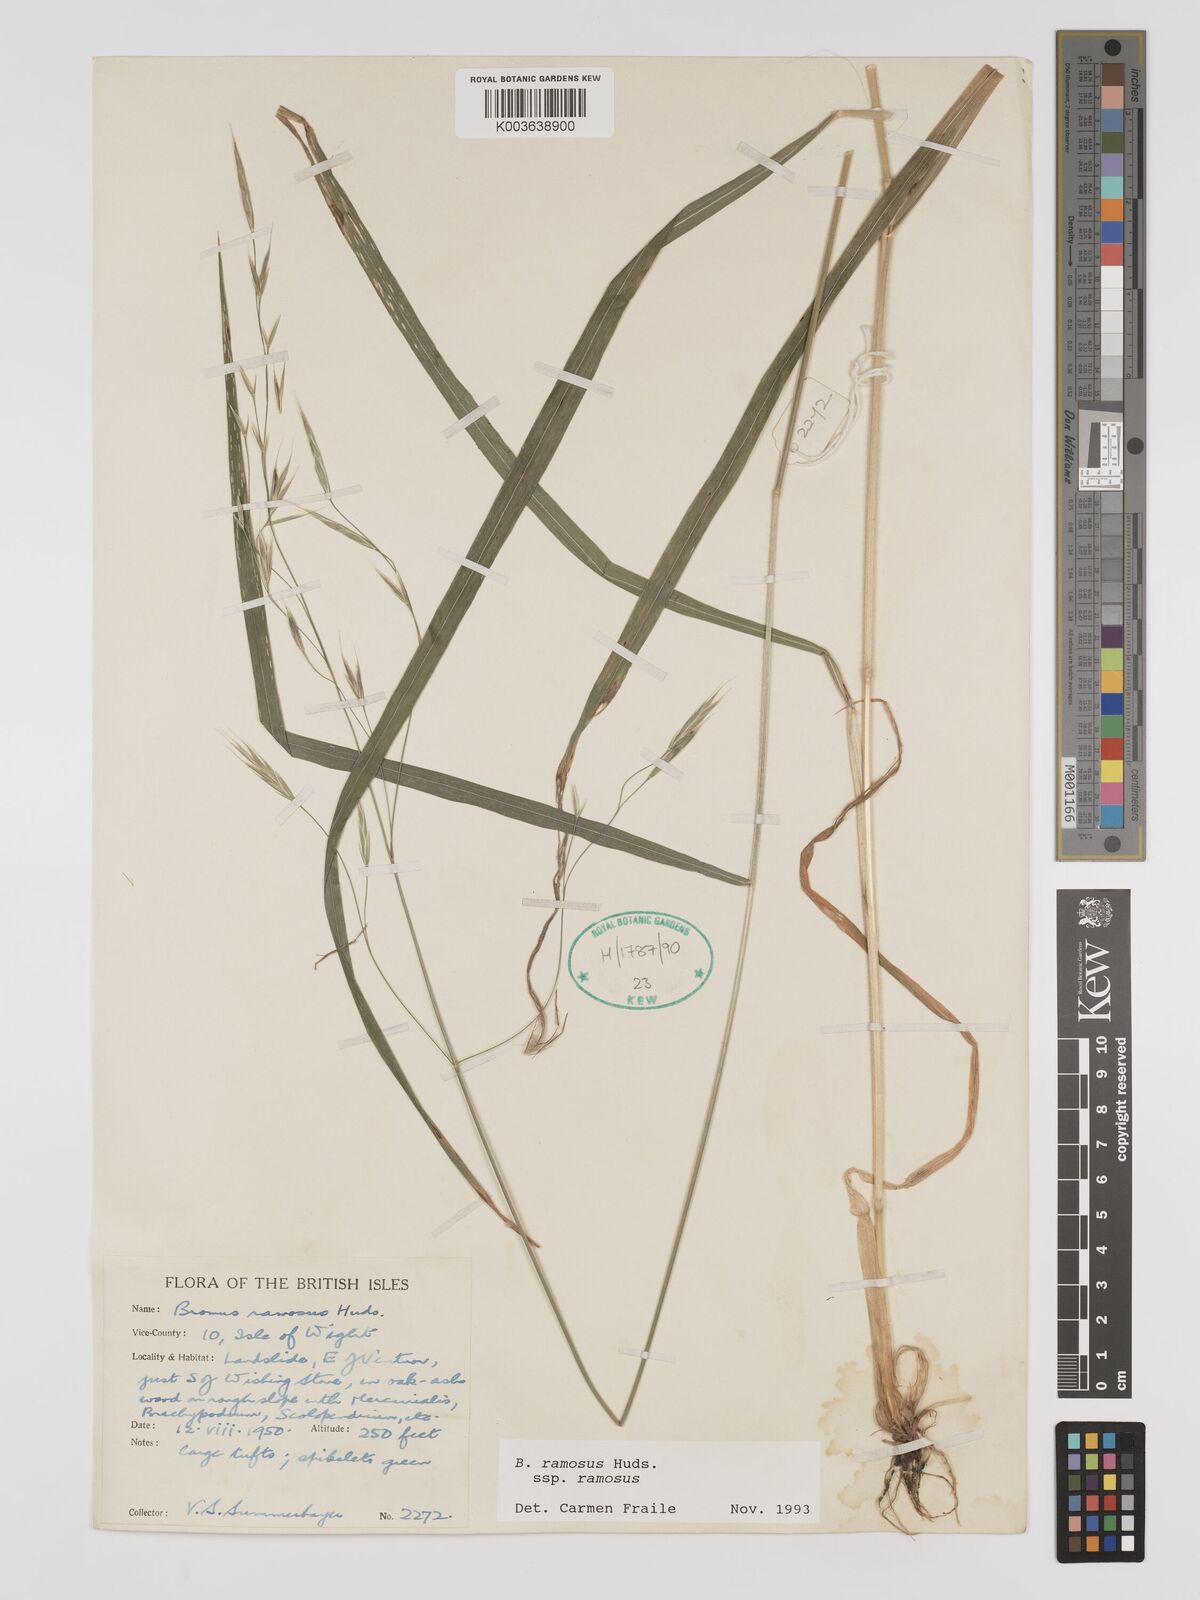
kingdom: Plantae
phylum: Tracheophyta
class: Liliopsida
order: Poales
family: Poaceae
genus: Bromus
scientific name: Bromus ramosus
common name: Hairy brome
